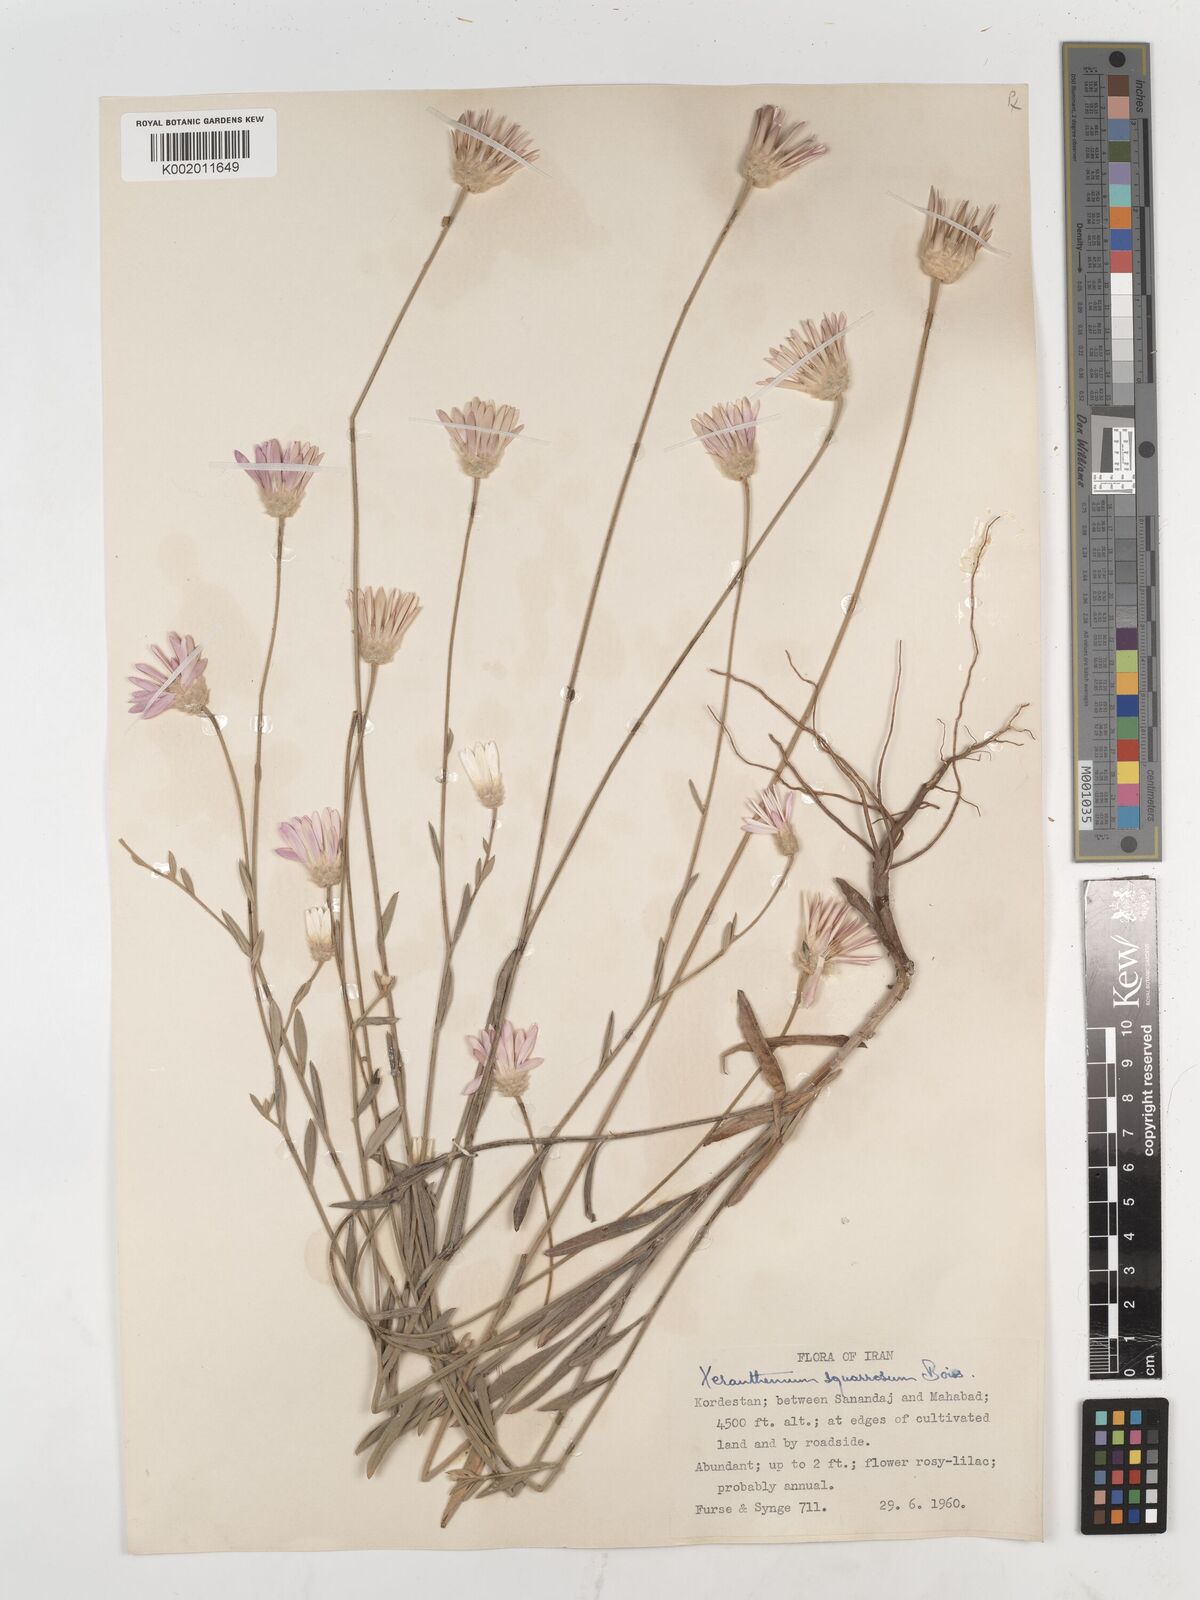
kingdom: Plantae
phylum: Tracheophyta
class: Magnoliopsida
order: Asterales
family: Asteraceae
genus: Xeranthemum
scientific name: Xeranthemum squarrosum
